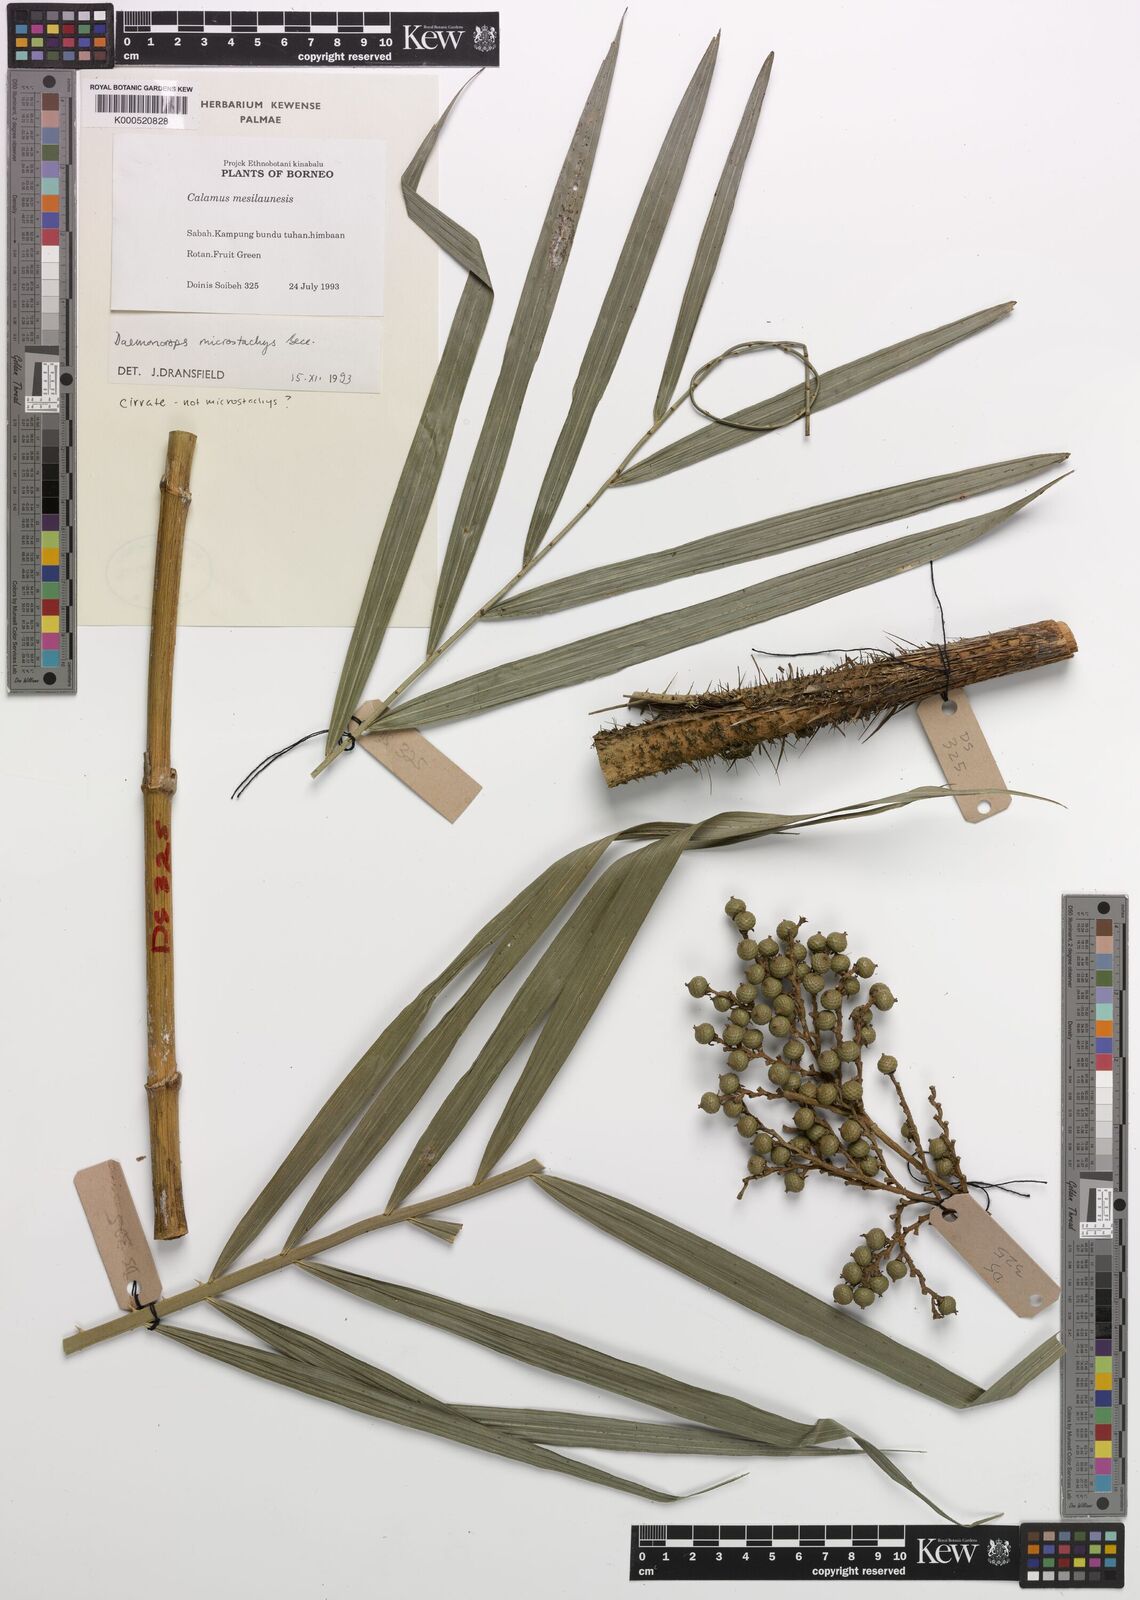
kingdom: Plantae
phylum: Tracheophyta
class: Liliopsida
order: Arecales
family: Arecaceae
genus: Calamus
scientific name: Calamus kunstleri
